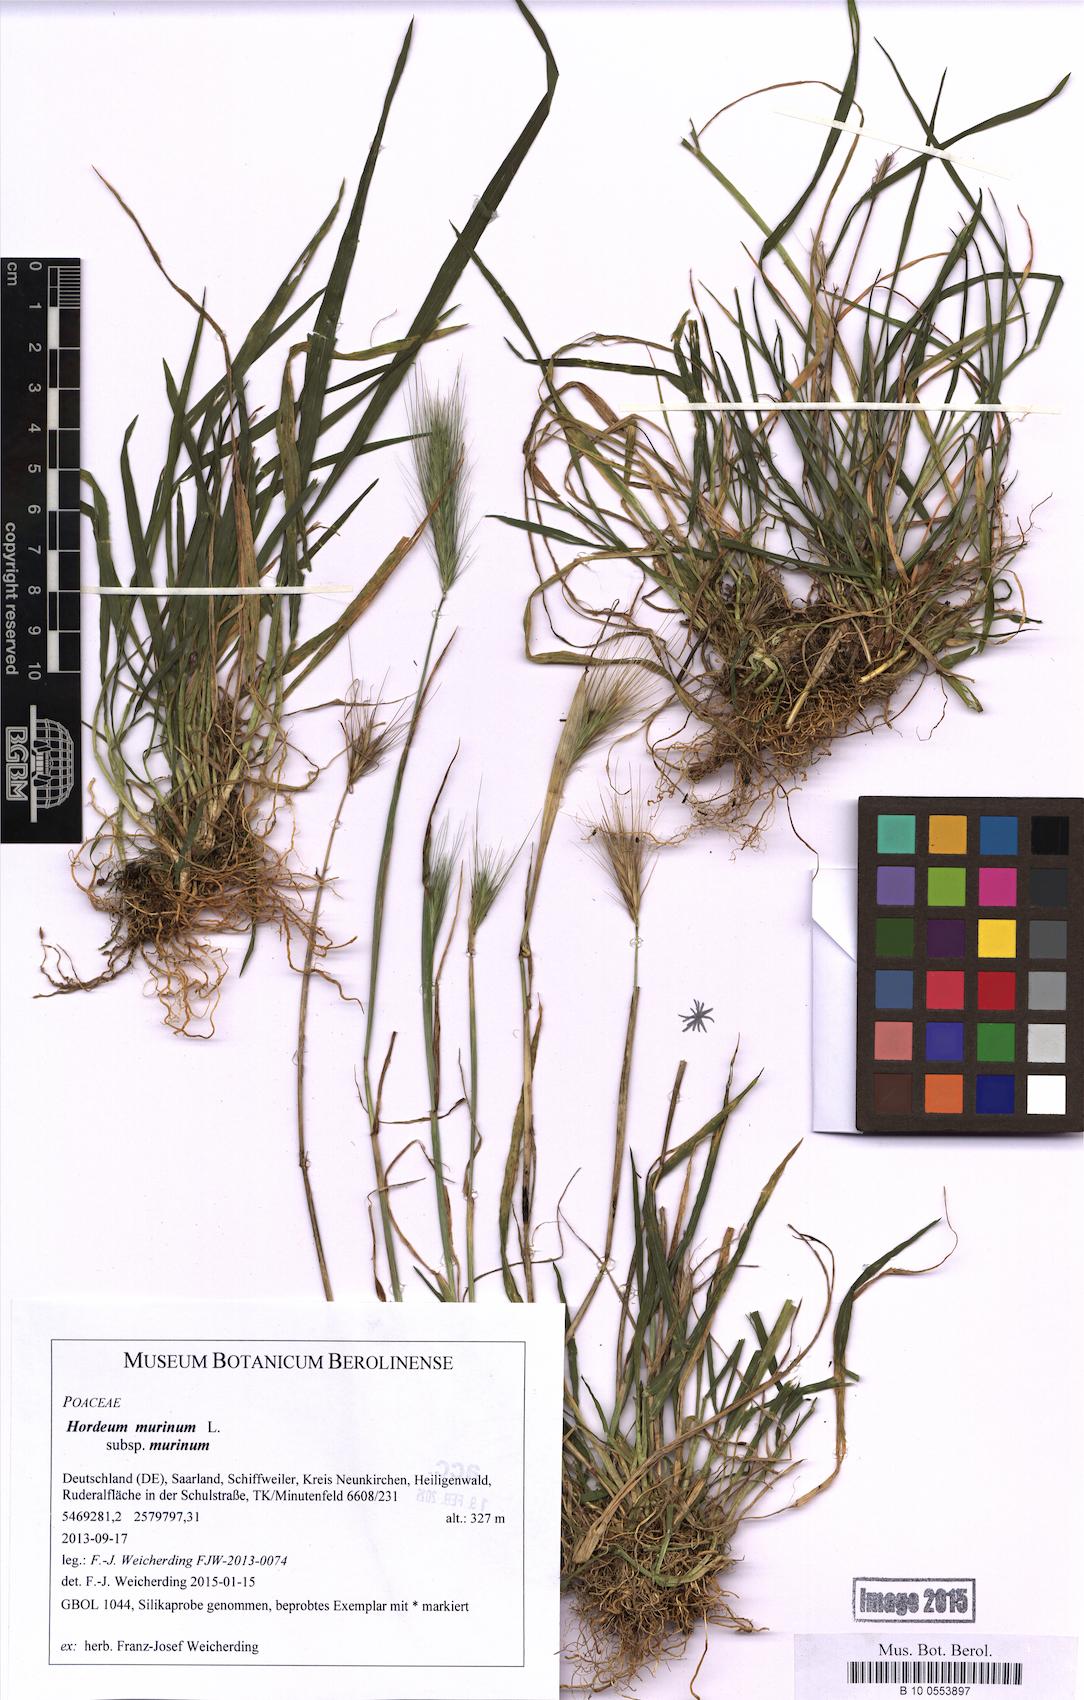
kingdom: Plantae
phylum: Tracheophyta
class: Liliopsida
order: Poales
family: Poaceae
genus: Hordeum
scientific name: Hordeum murinum
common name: Wall barley
